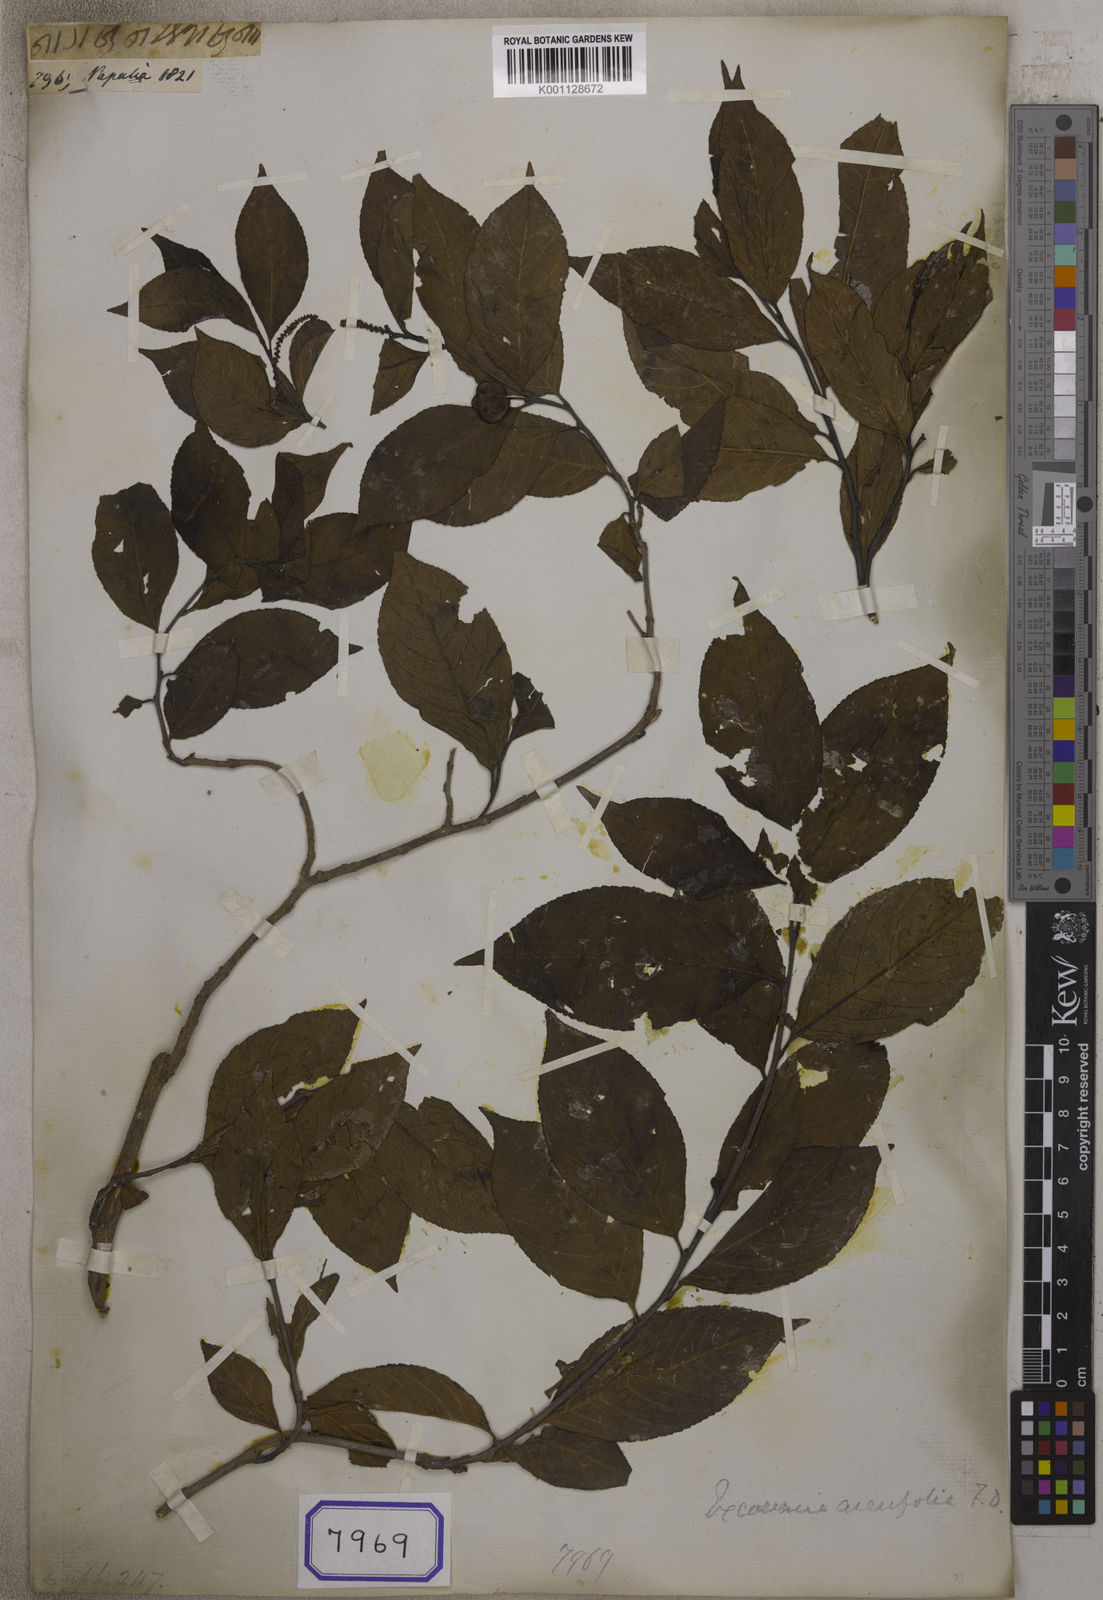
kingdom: Plantae
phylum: Tracheophyta
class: Magnoliopsida
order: Malpighiales
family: Euphorbiaceae
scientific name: Euphorbiaceae
